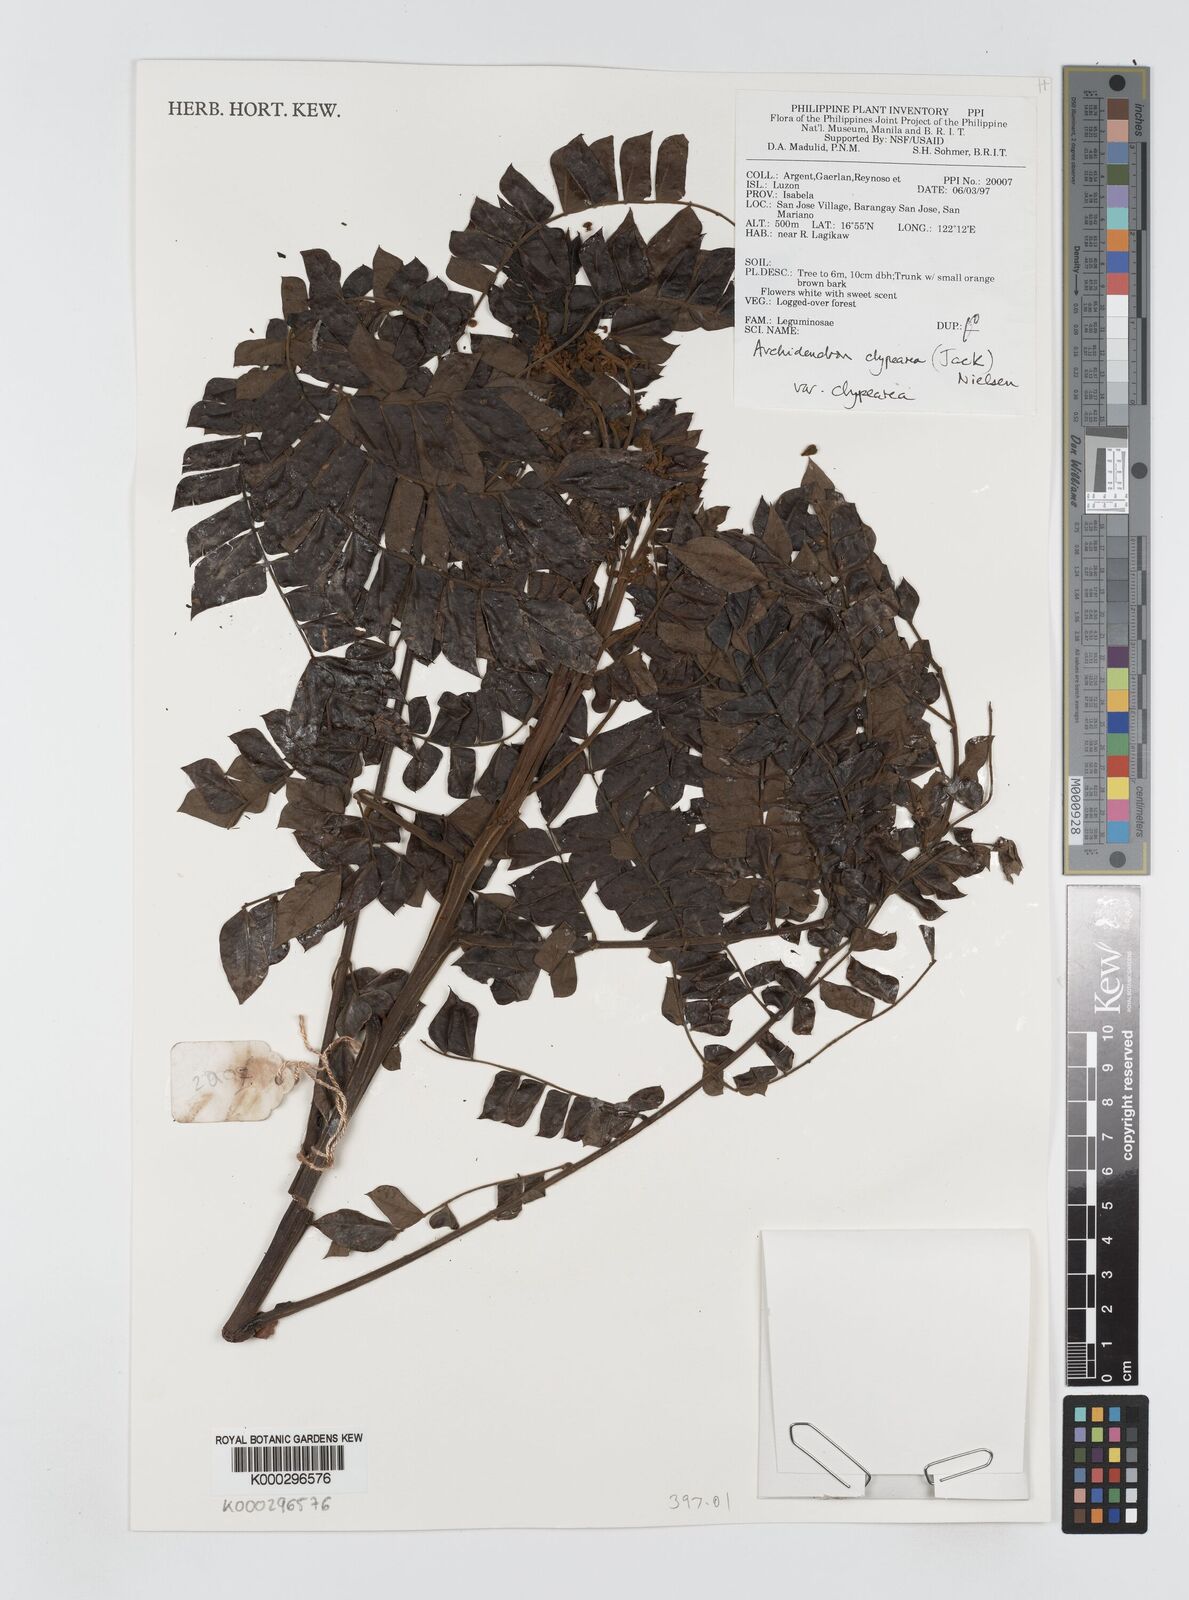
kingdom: Plantae
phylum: Tracheophyta
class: Magnoliopsida
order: Fabales
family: Fabaceae
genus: Archidendron
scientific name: Archidendron clypearia
